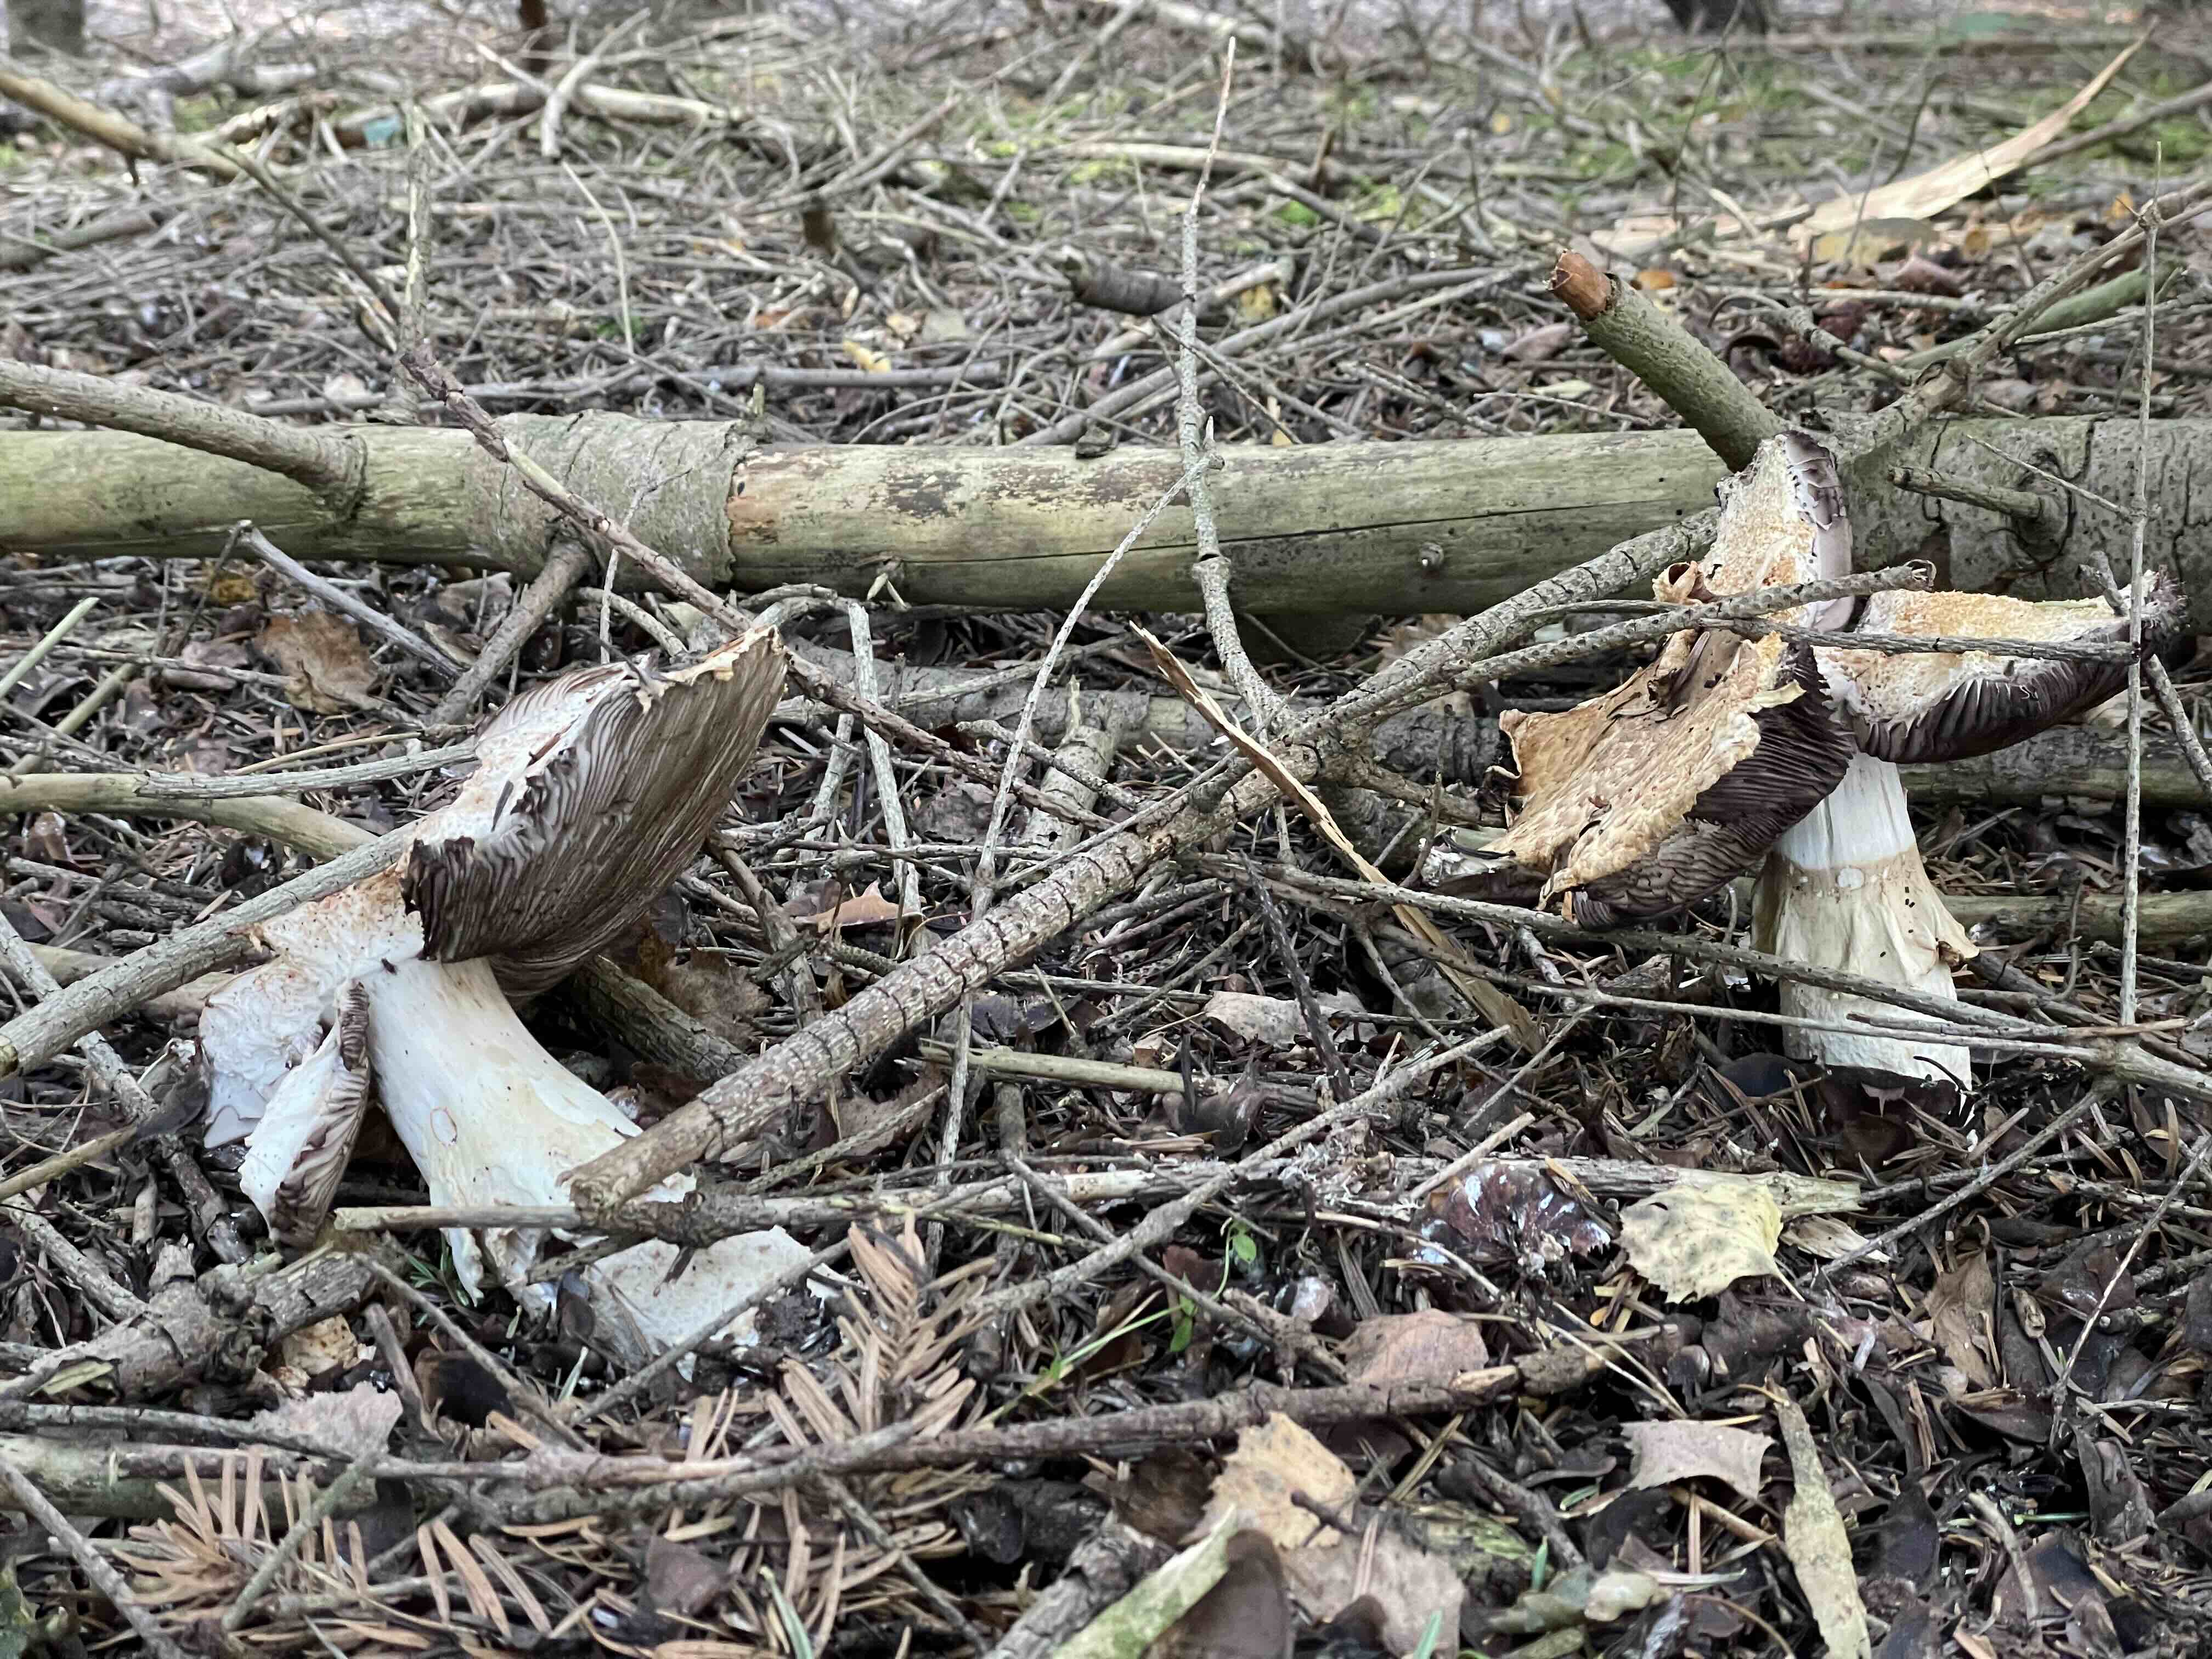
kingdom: Fungi
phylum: Basidiomycota
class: Agaricomycetes
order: Agaricales
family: Agaricaceae
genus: Agaricus
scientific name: Agaricus augustus
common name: prægtig champignon
